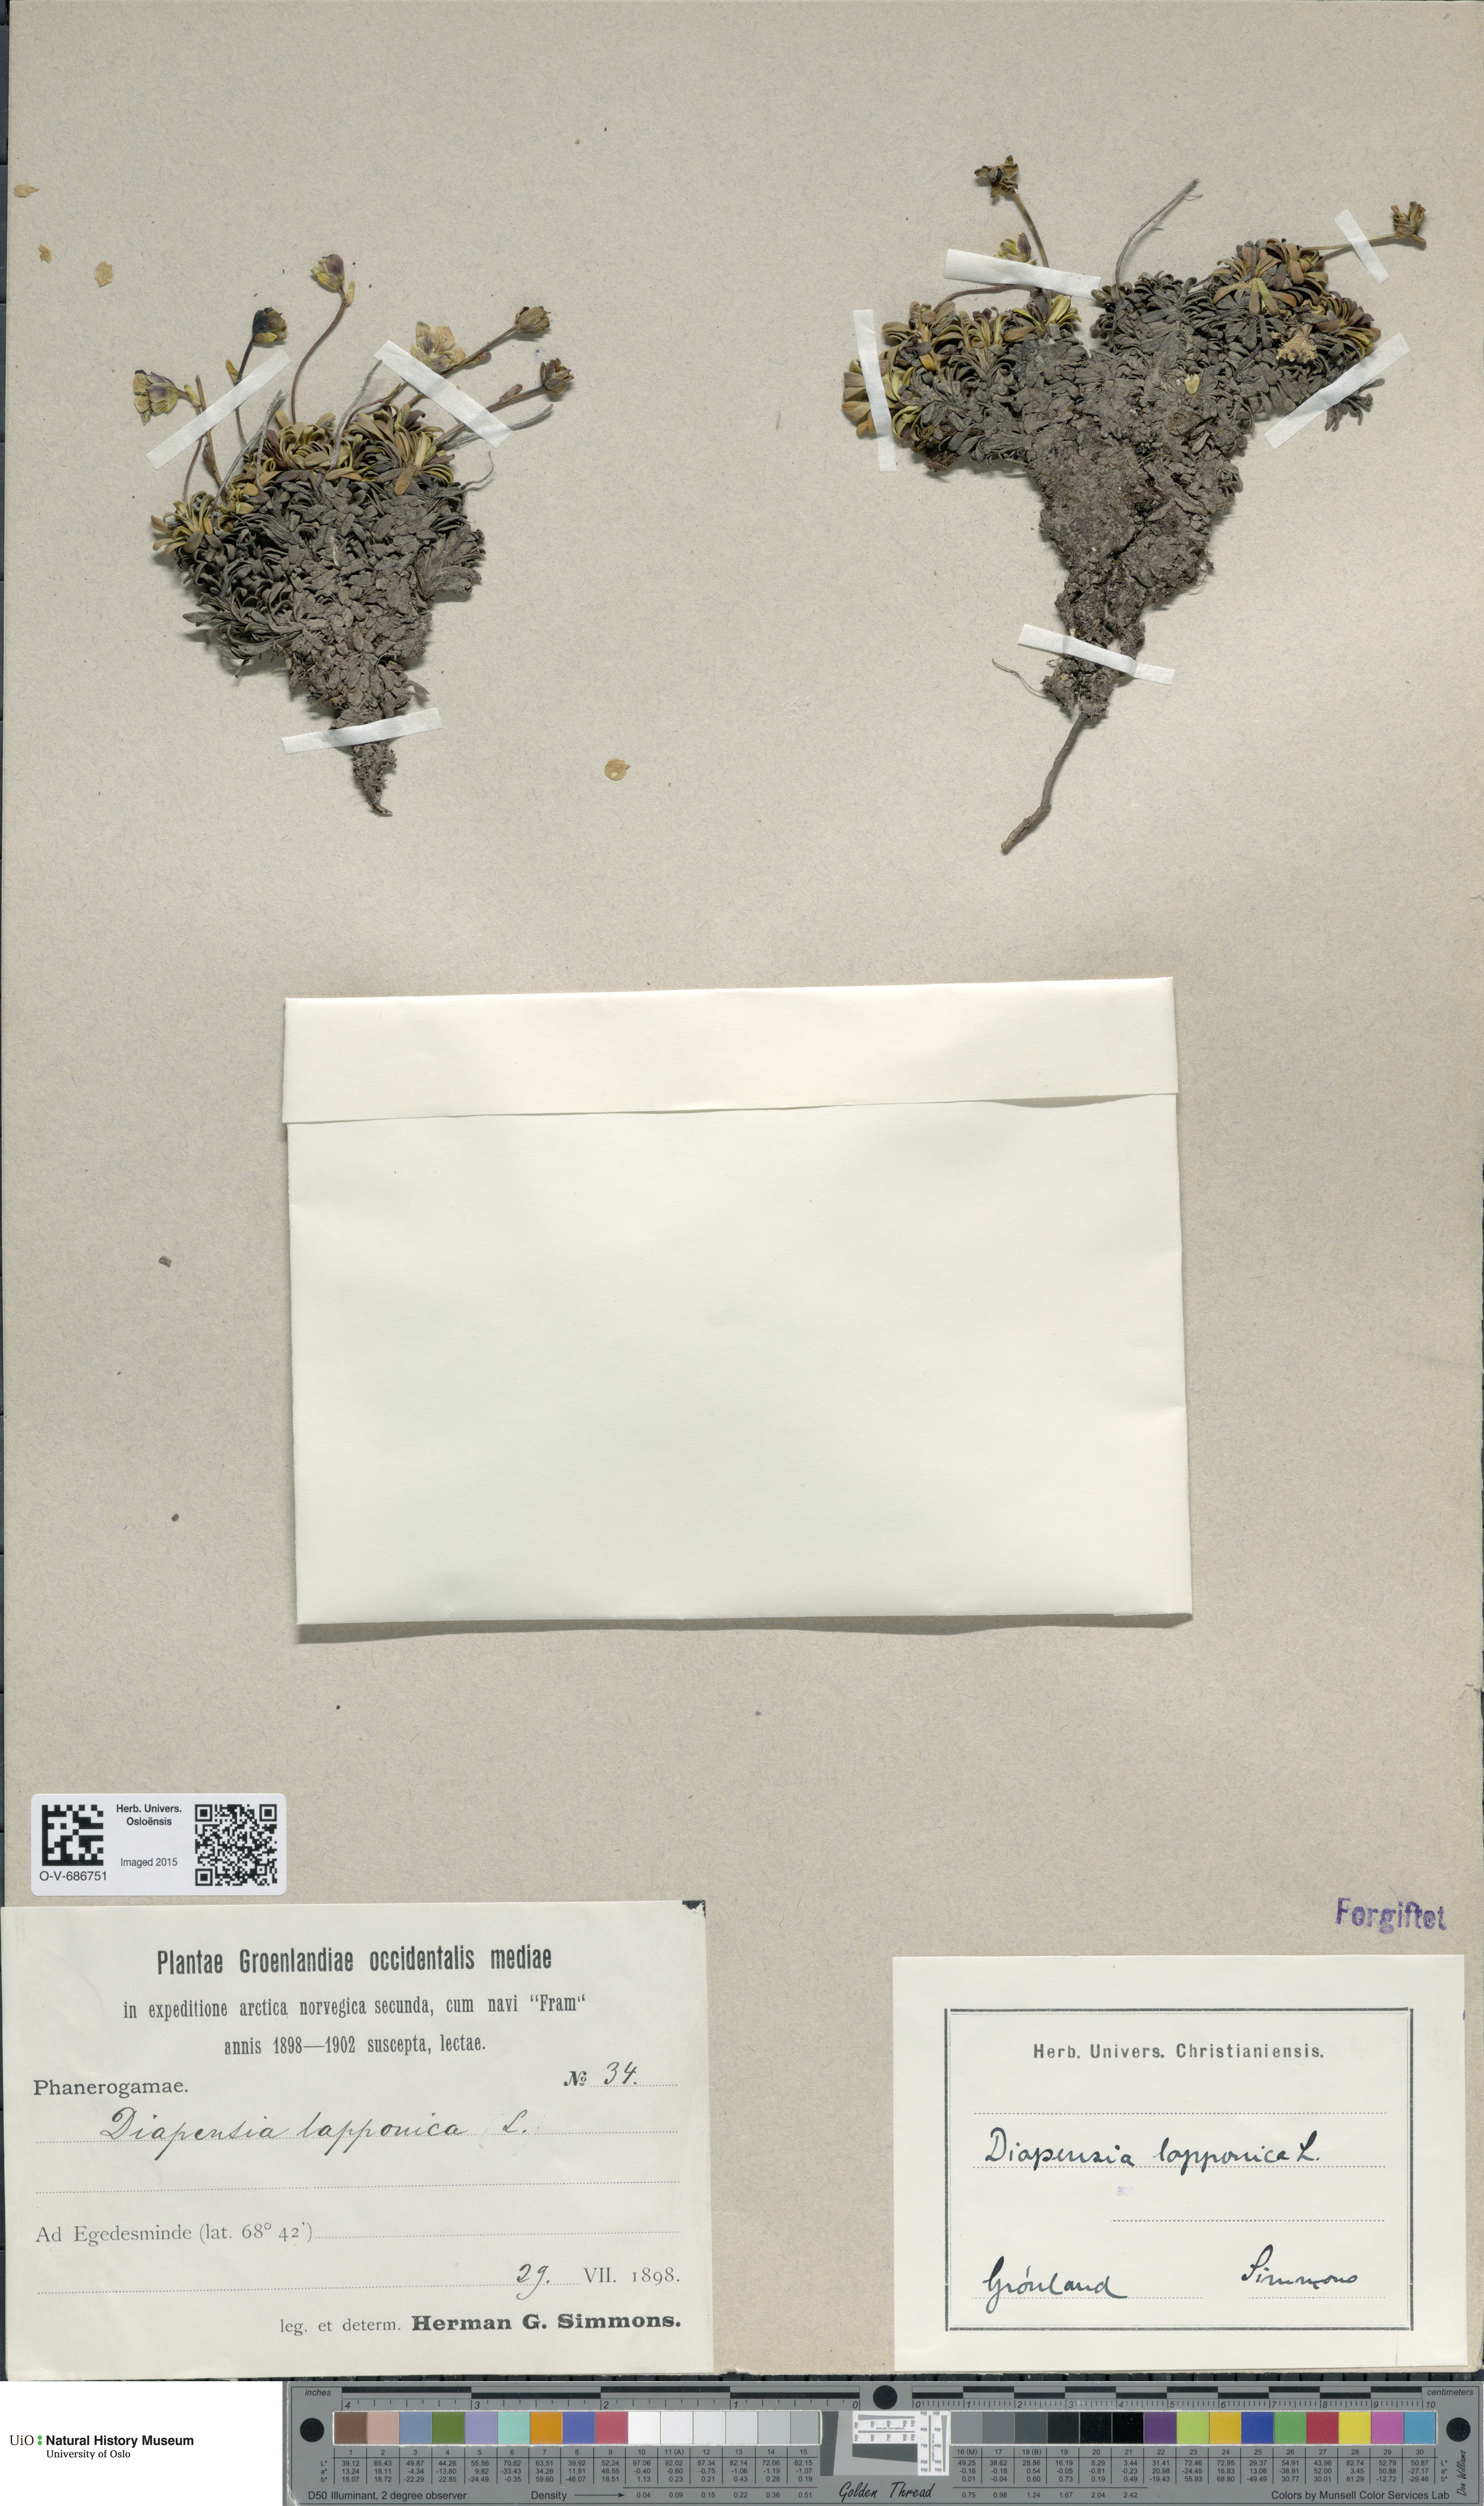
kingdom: Plantae
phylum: Tracheophyta
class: Magnoliopsida
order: Ericales
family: Diapensiaceae
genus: Diapensia
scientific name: Diapensia lapponica
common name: Diapensia
